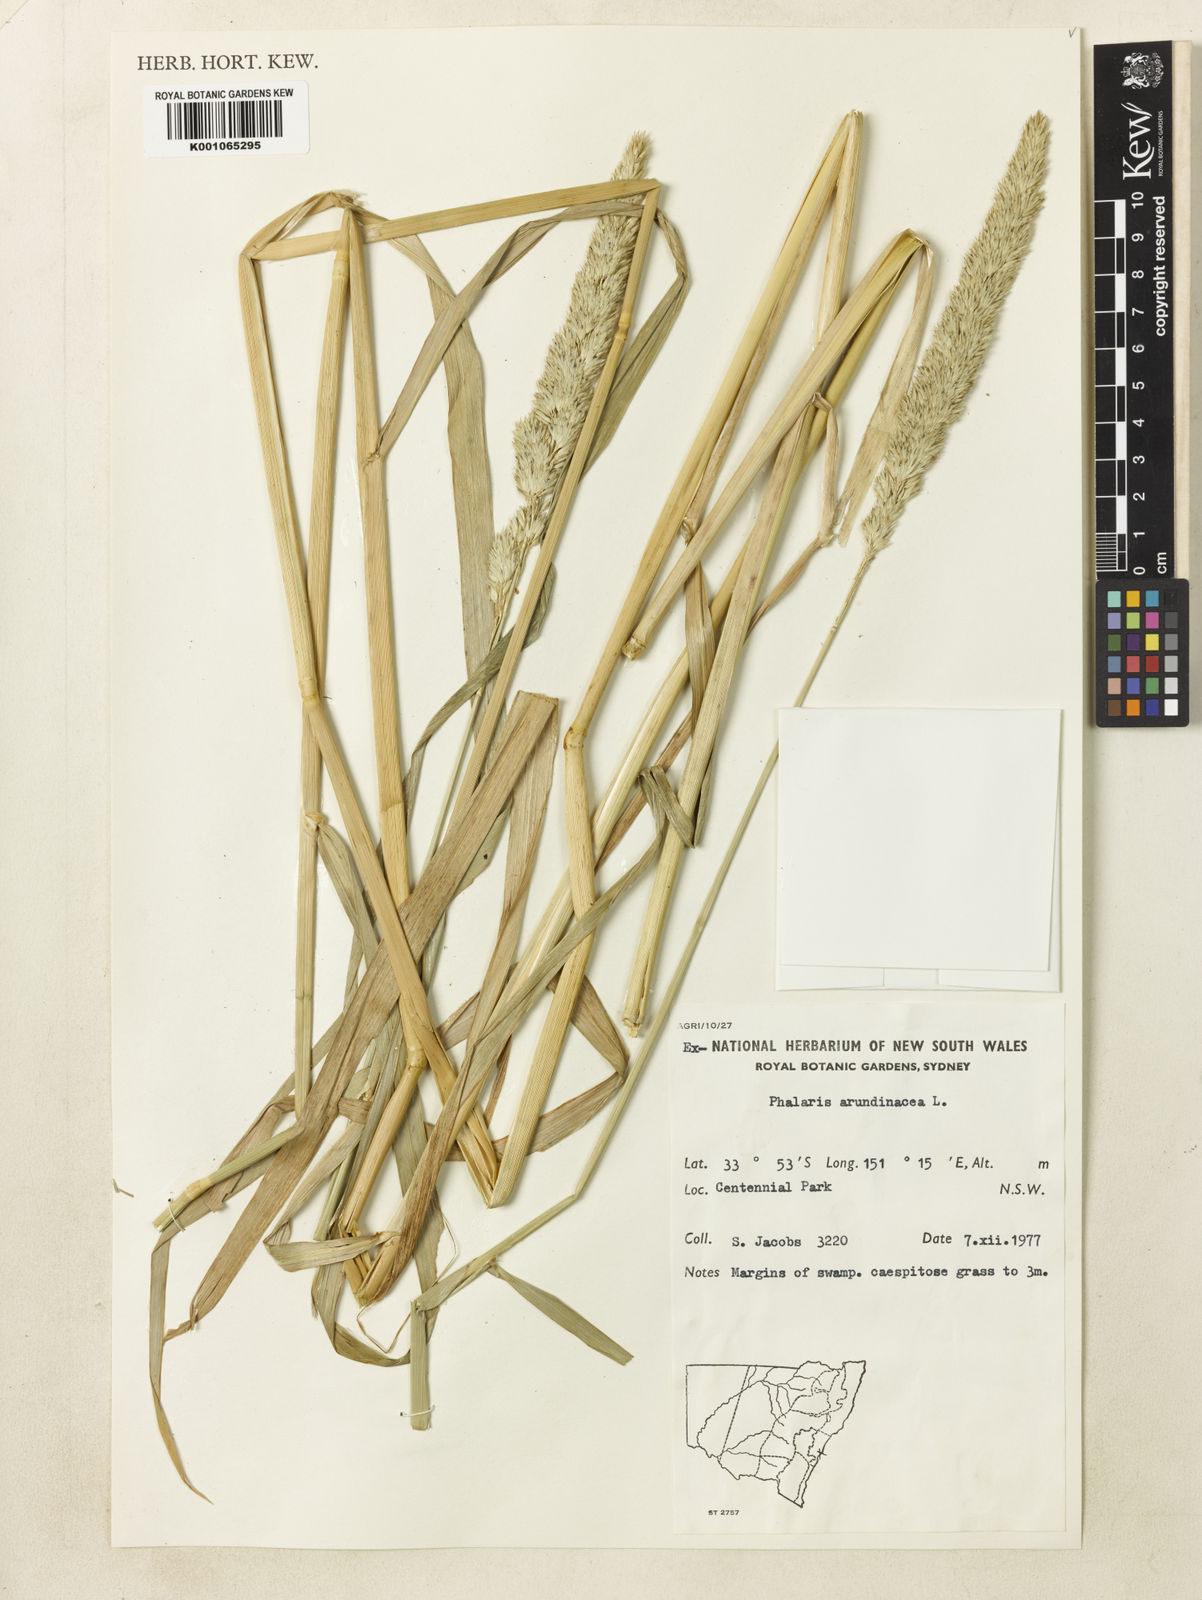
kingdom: Plantae
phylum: Tracheophyta
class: Liliopsida
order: Poales
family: Poaceae
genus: Phalaris
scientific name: Phalaris arundinacea
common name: Reed canary-grass
